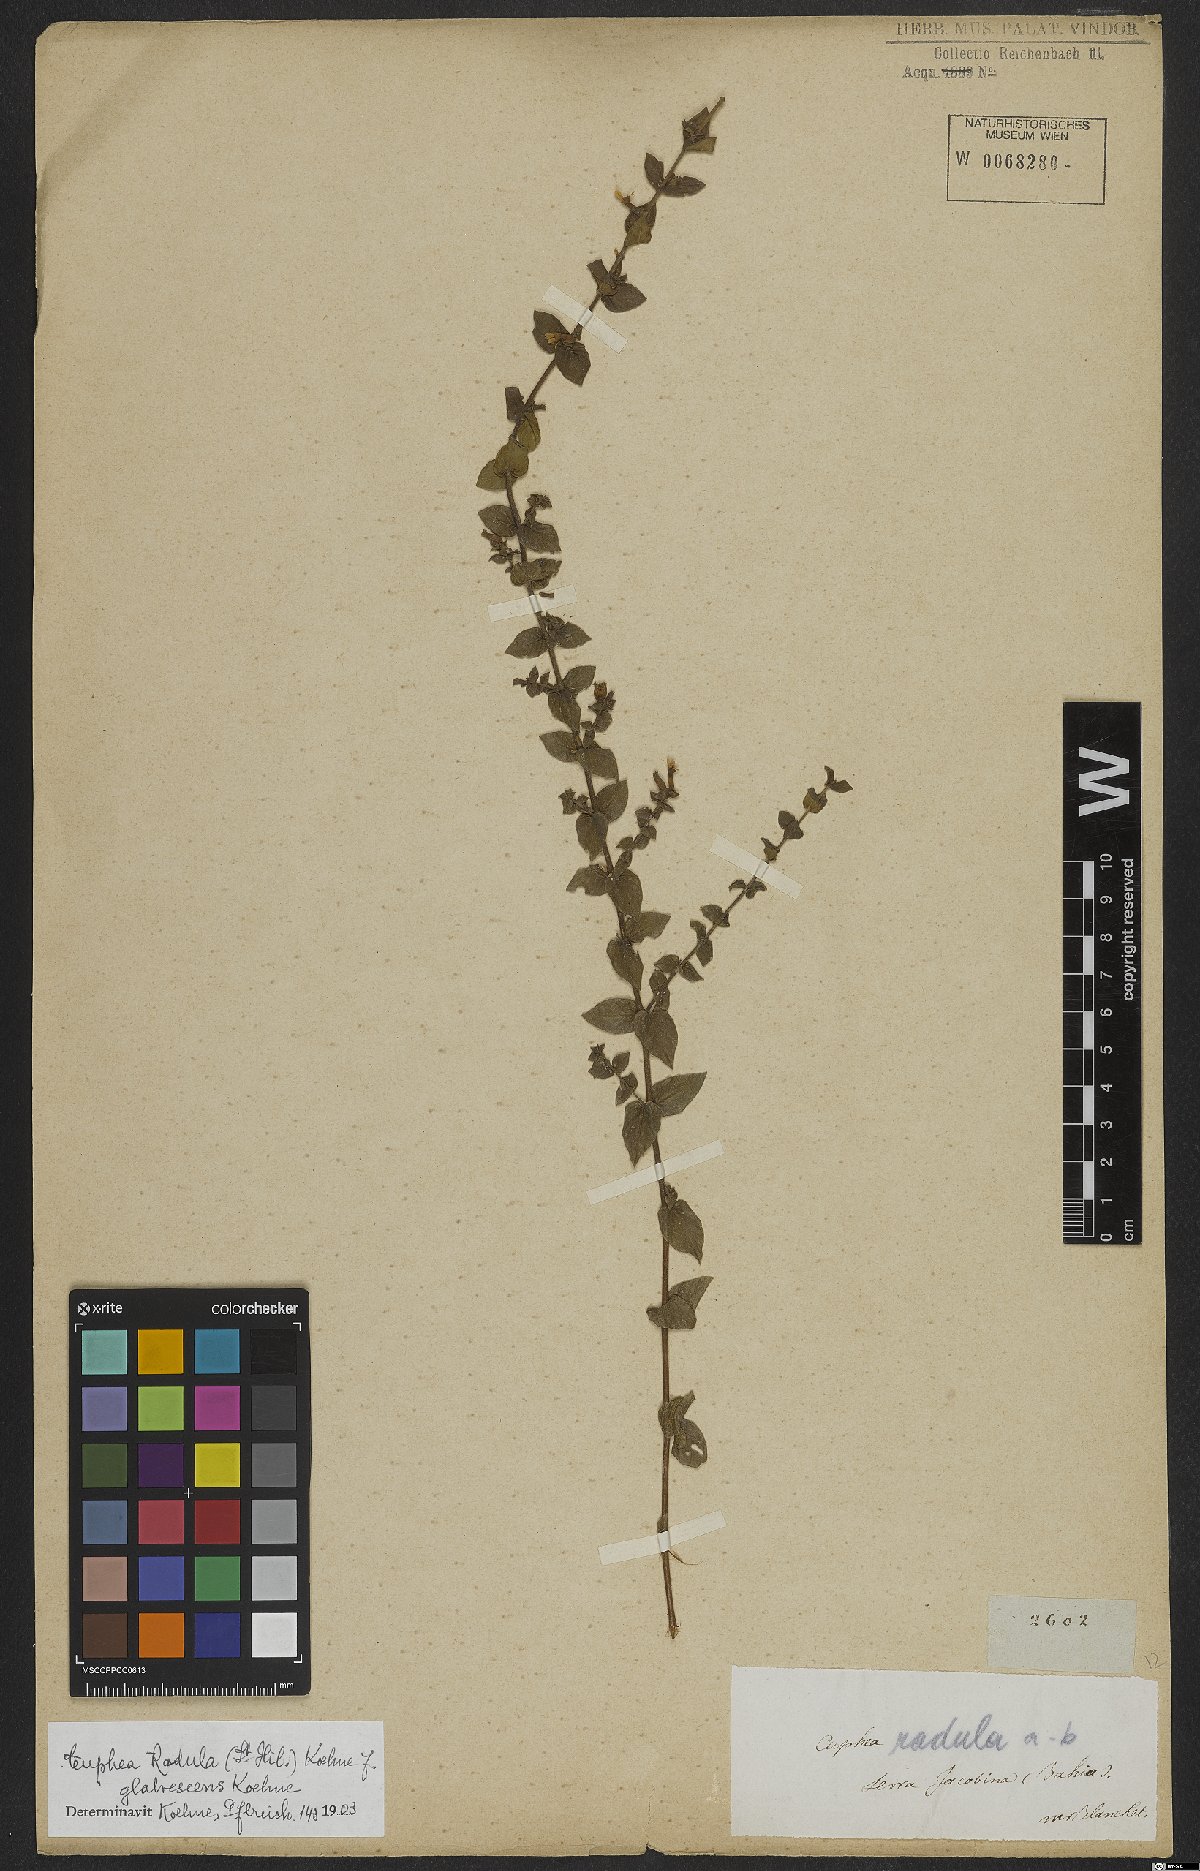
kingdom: Plantae
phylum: Tracheophyta
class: Magnoliopsida
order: Myrtales
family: Lythraceae
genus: Cuphea
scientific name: Cuphea antisyphilitica
